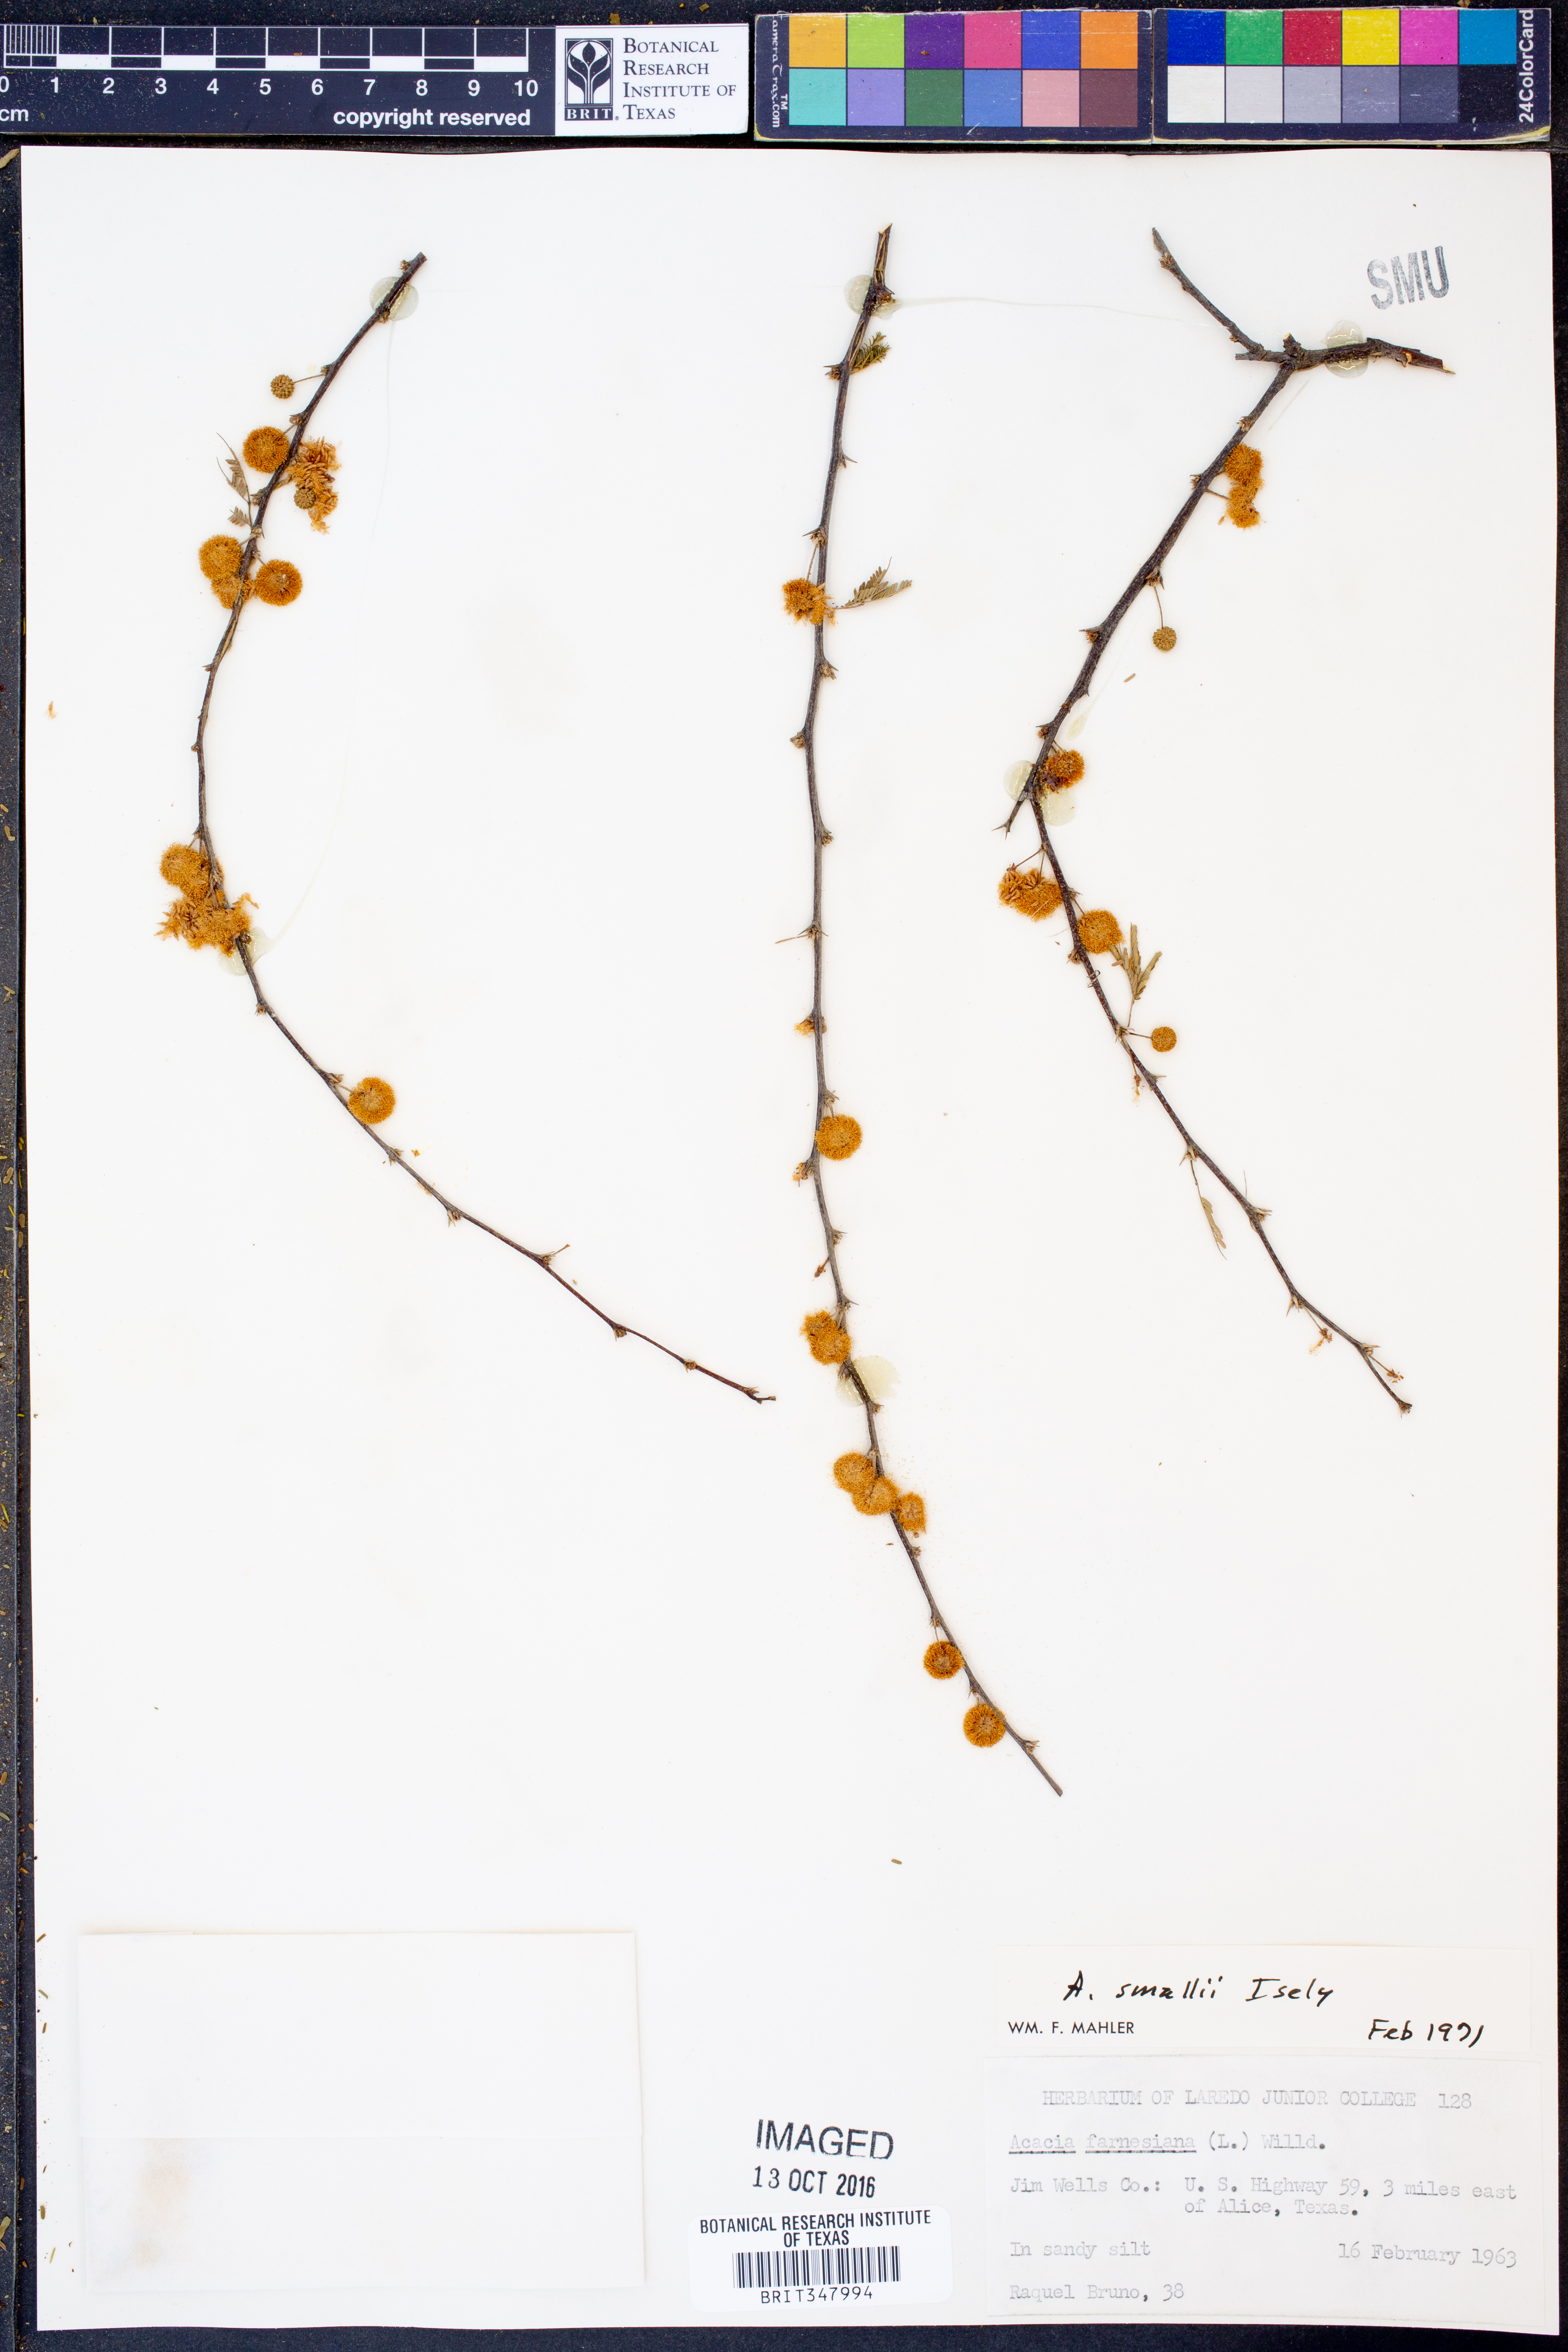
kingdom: Plantae
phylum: Tracheophyta
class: Magnoliopsida
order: Fabales
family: Fabaceae
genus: Vachellia
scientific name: Vachellia farnesiana
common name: Sweet acacia
